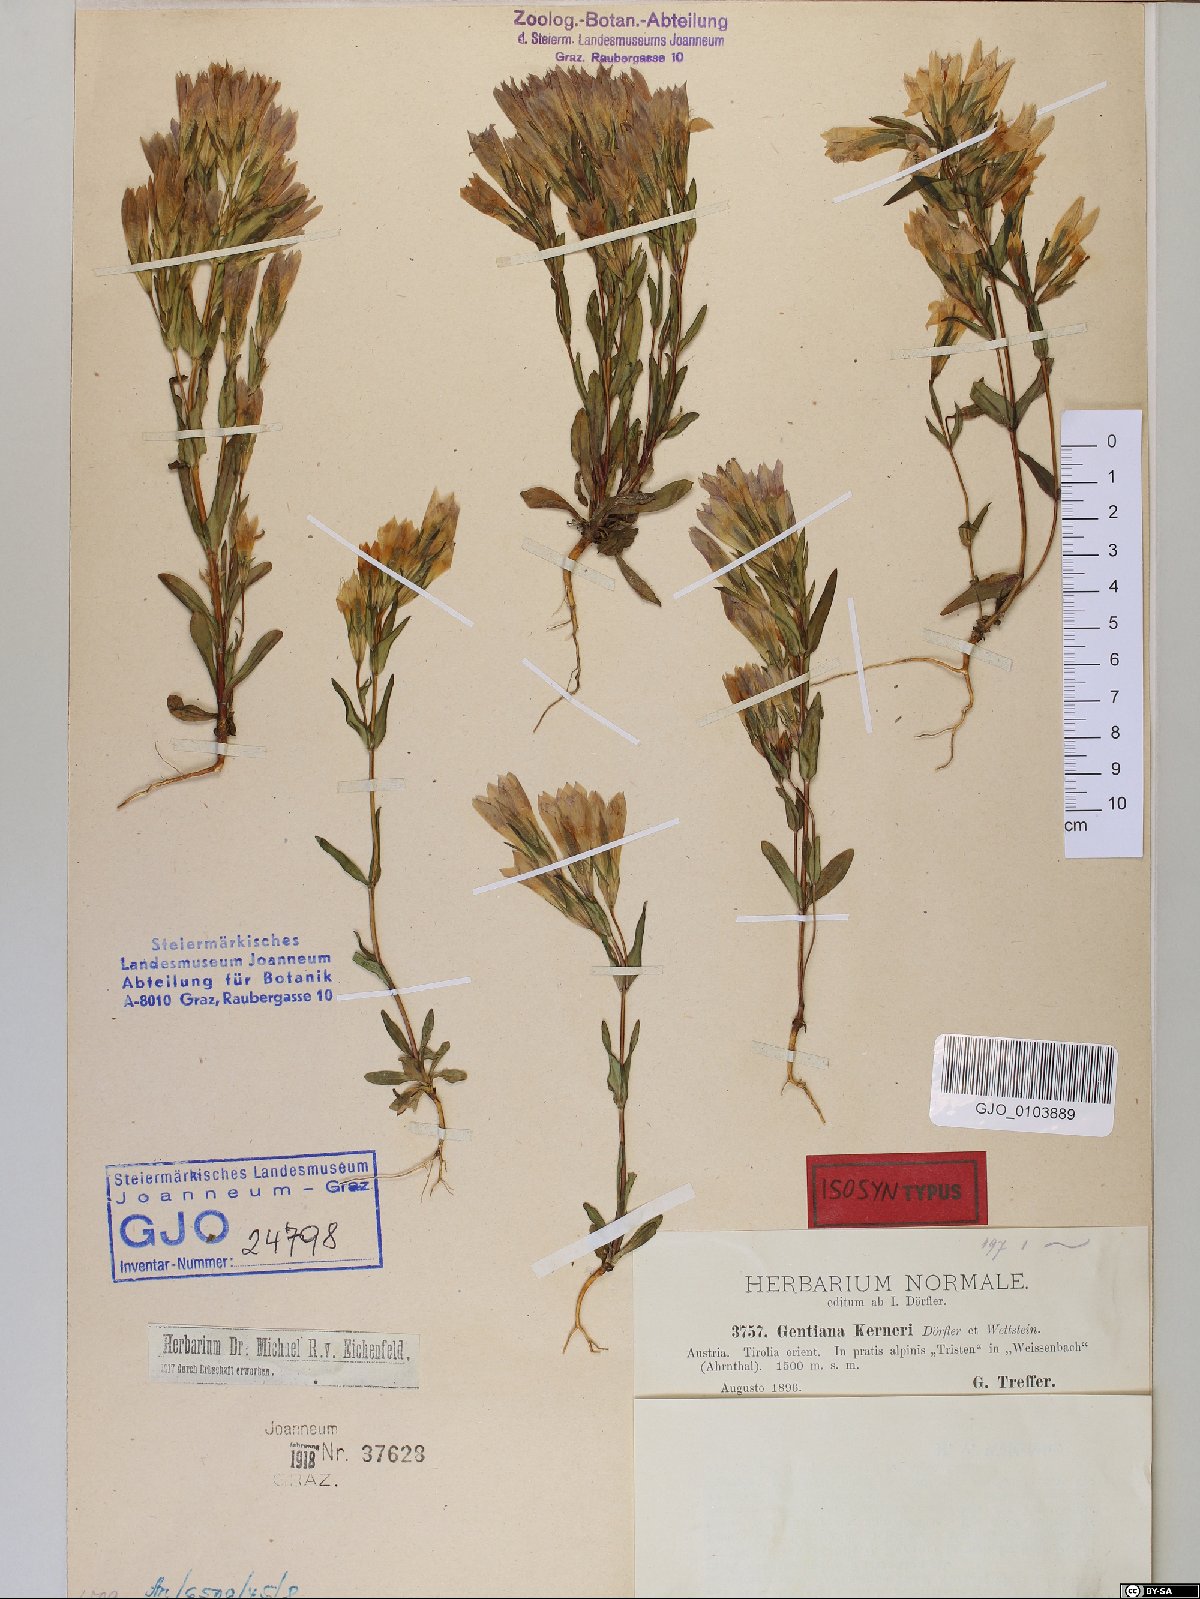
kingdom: Plantae
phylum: Tracheophyta
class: Magnoliopsida
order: Gentianales
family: Gentianaceae
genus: Gentianella
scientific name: Gentianella rhaetica
